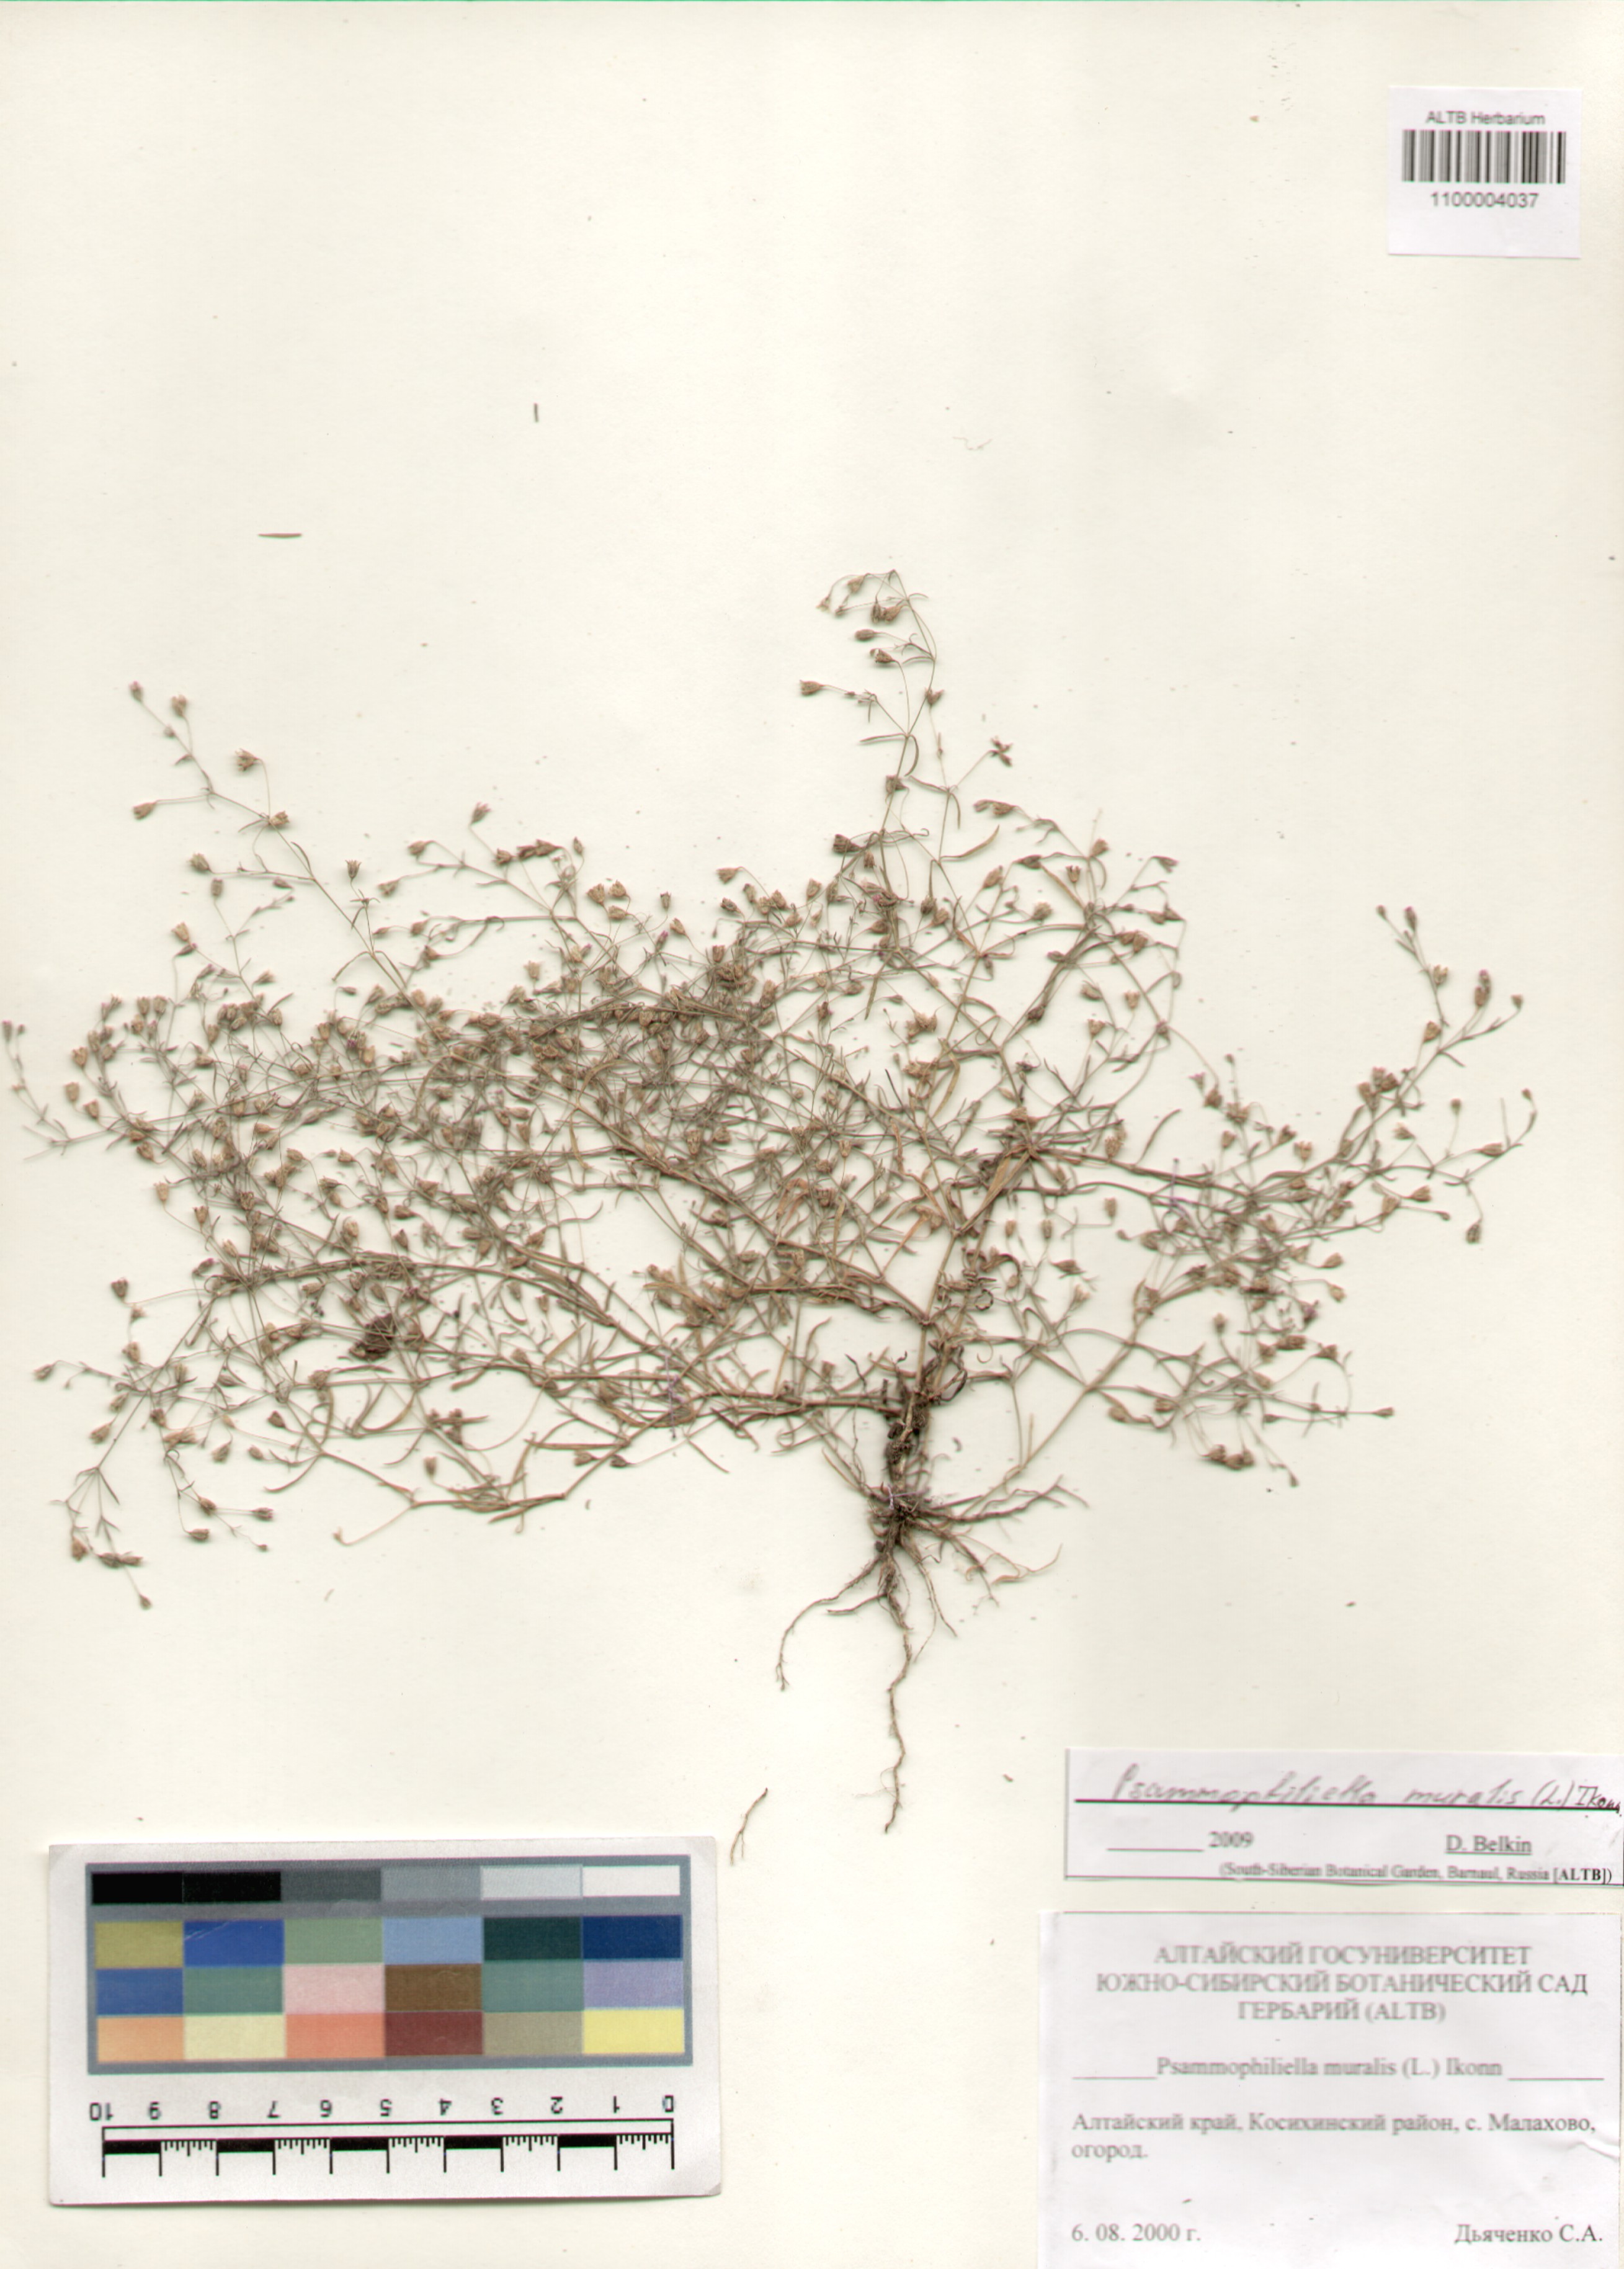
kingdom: Plantae
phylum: Tracheophyta
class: Magnoliopsida
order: Caryophyllales
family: Caryophyllaceae
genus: Psammophiliella
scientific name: Psammophiliella muralis
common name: Cushion baby's-breath
